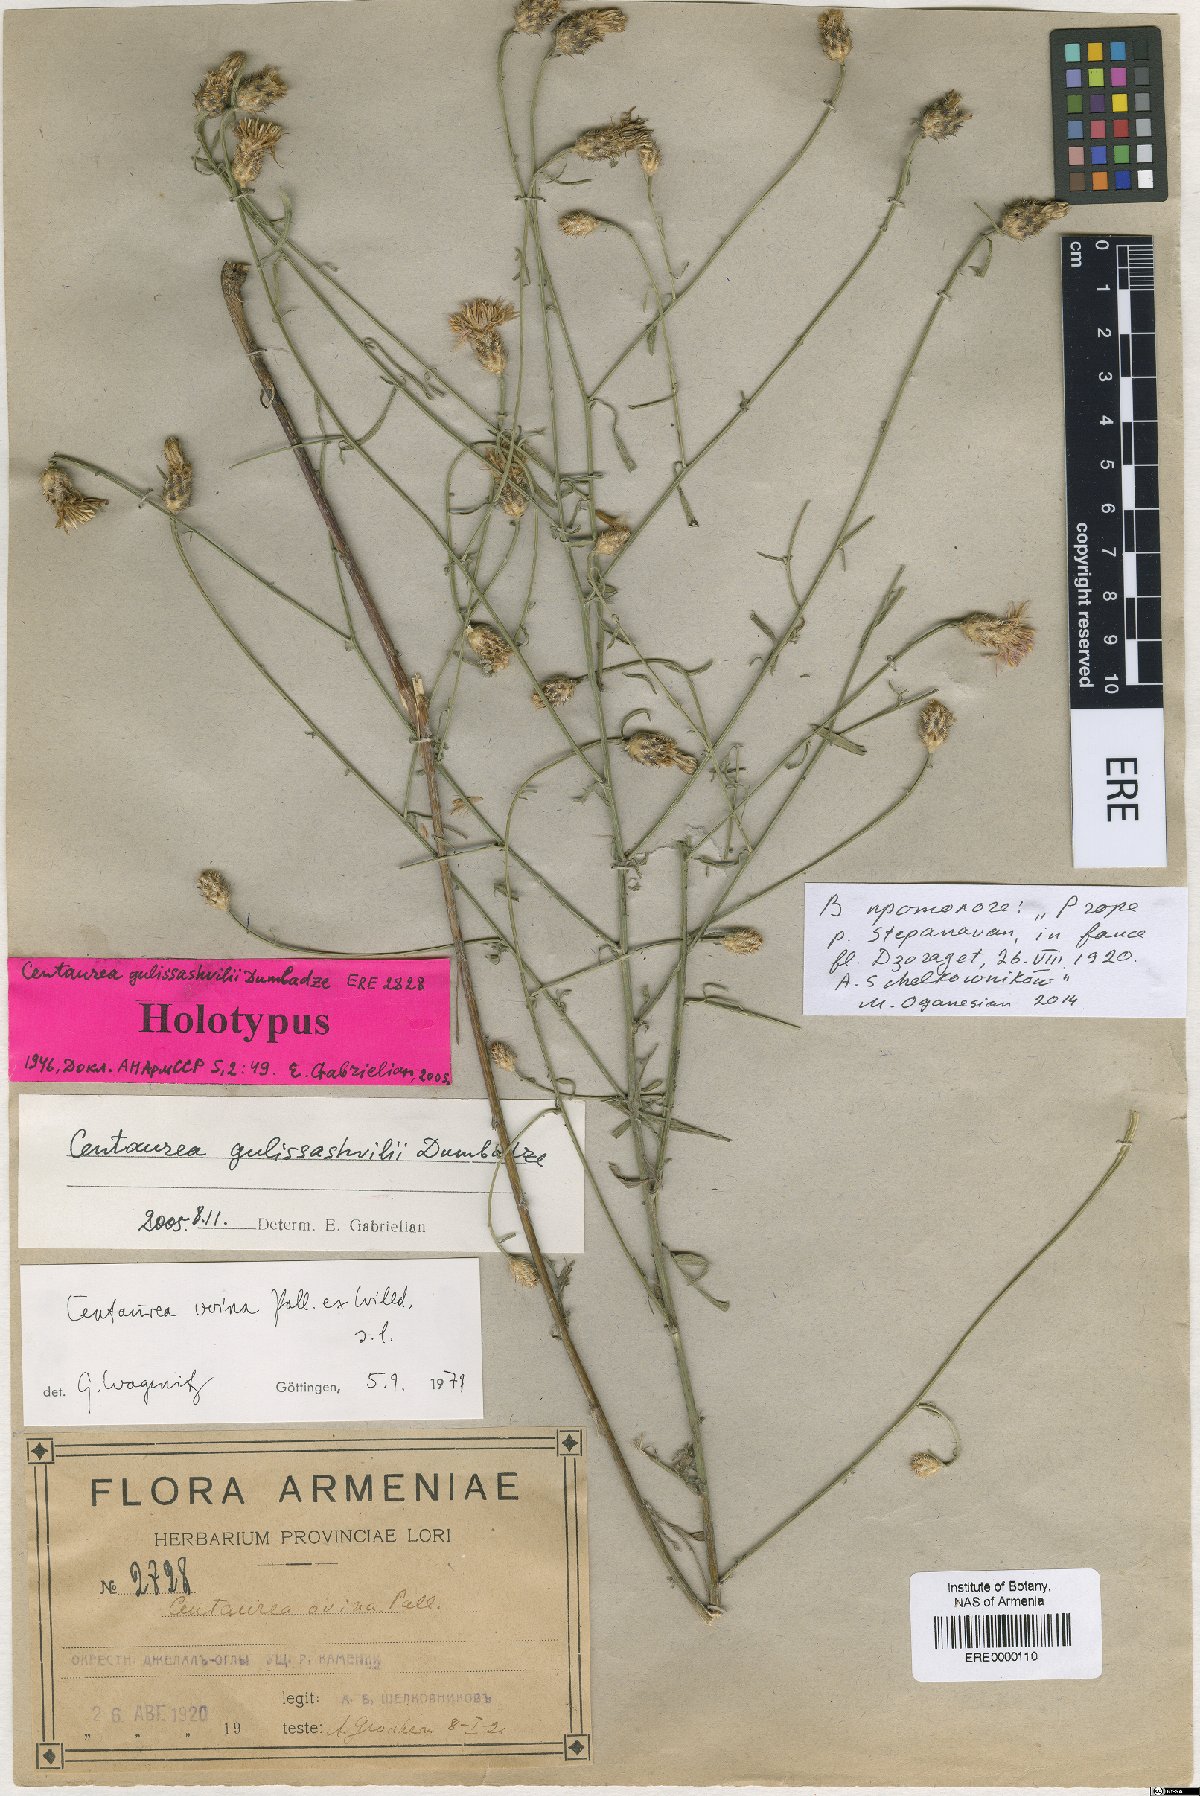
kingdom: Plantae
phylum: Tracheophyta
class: Magnoliopsida
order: Asterales
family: Asteraceae
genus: Centaurea
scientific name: Centaurea gulissashvilii
